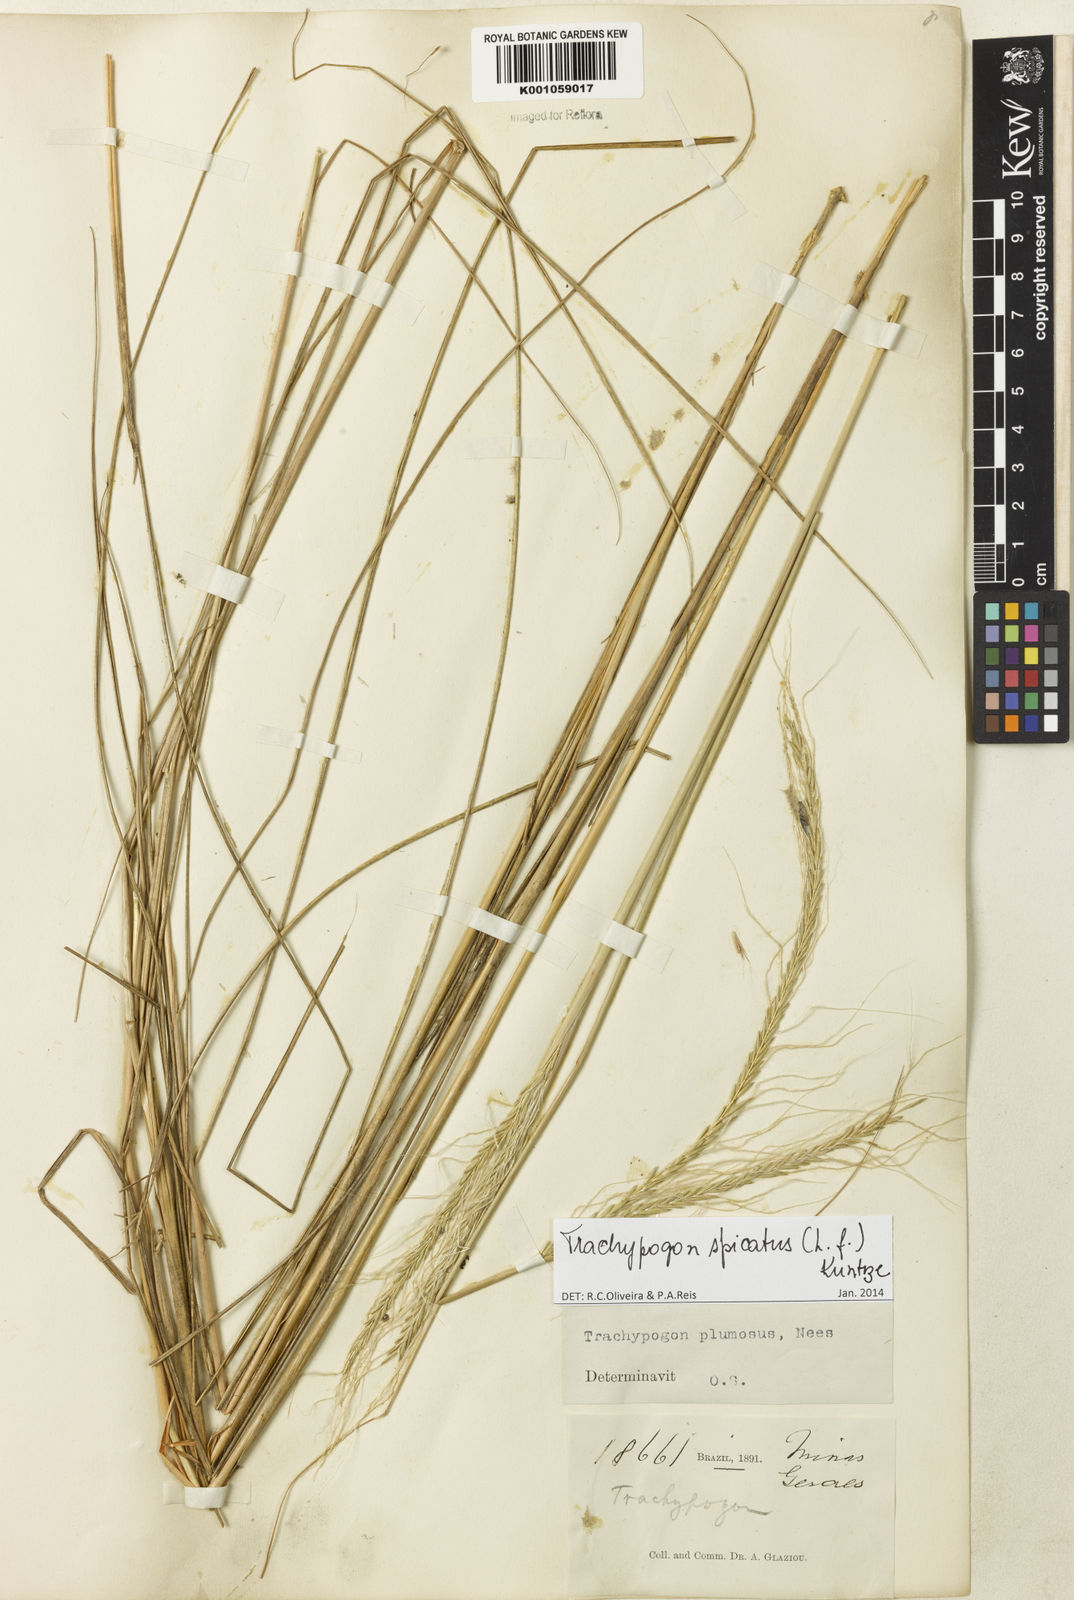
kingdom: Plantae
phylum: Tracheophyta
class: Liliopsida
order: Poales
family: Poaceae
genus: Trachypogon
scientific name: Trachypogon spicatus
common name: Crinkle-awn
